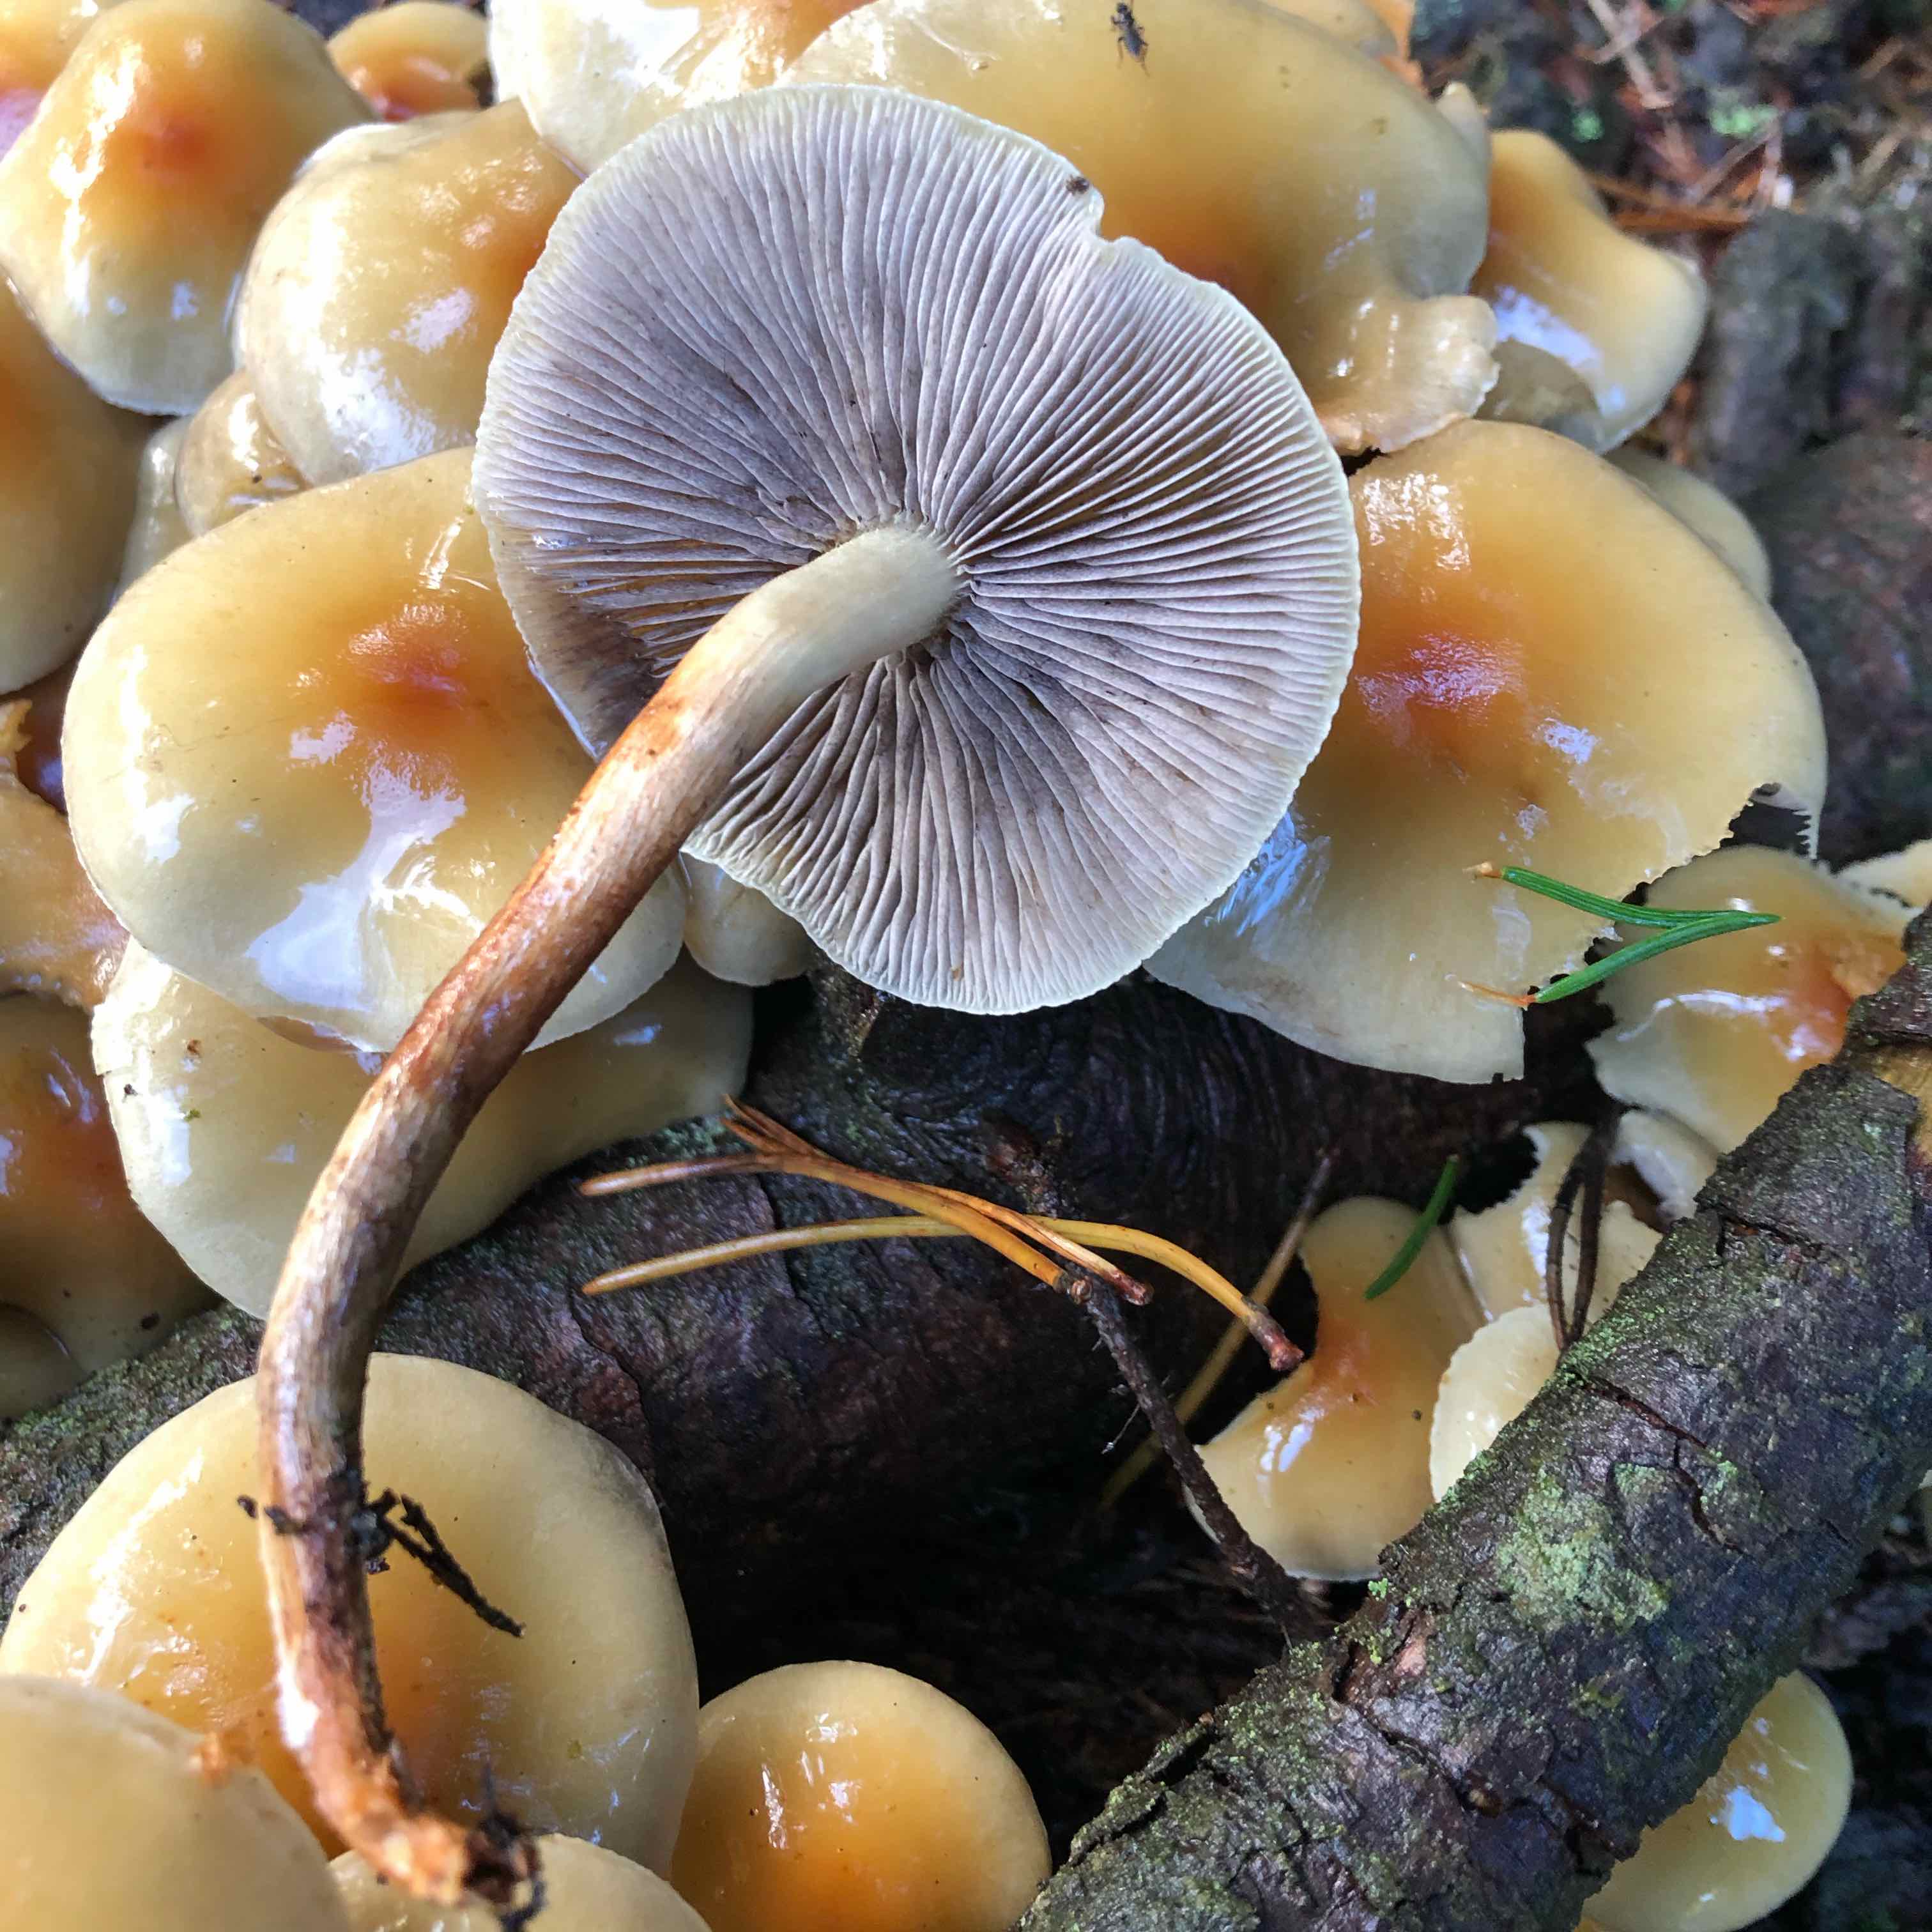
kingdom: Fungi
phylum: Basidiomycota
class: Agaricomycetes
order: Agaricales
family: Strophariaceae
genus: Hypholoma
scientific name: Hypholoma capnoides
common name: gran-svovlhat
